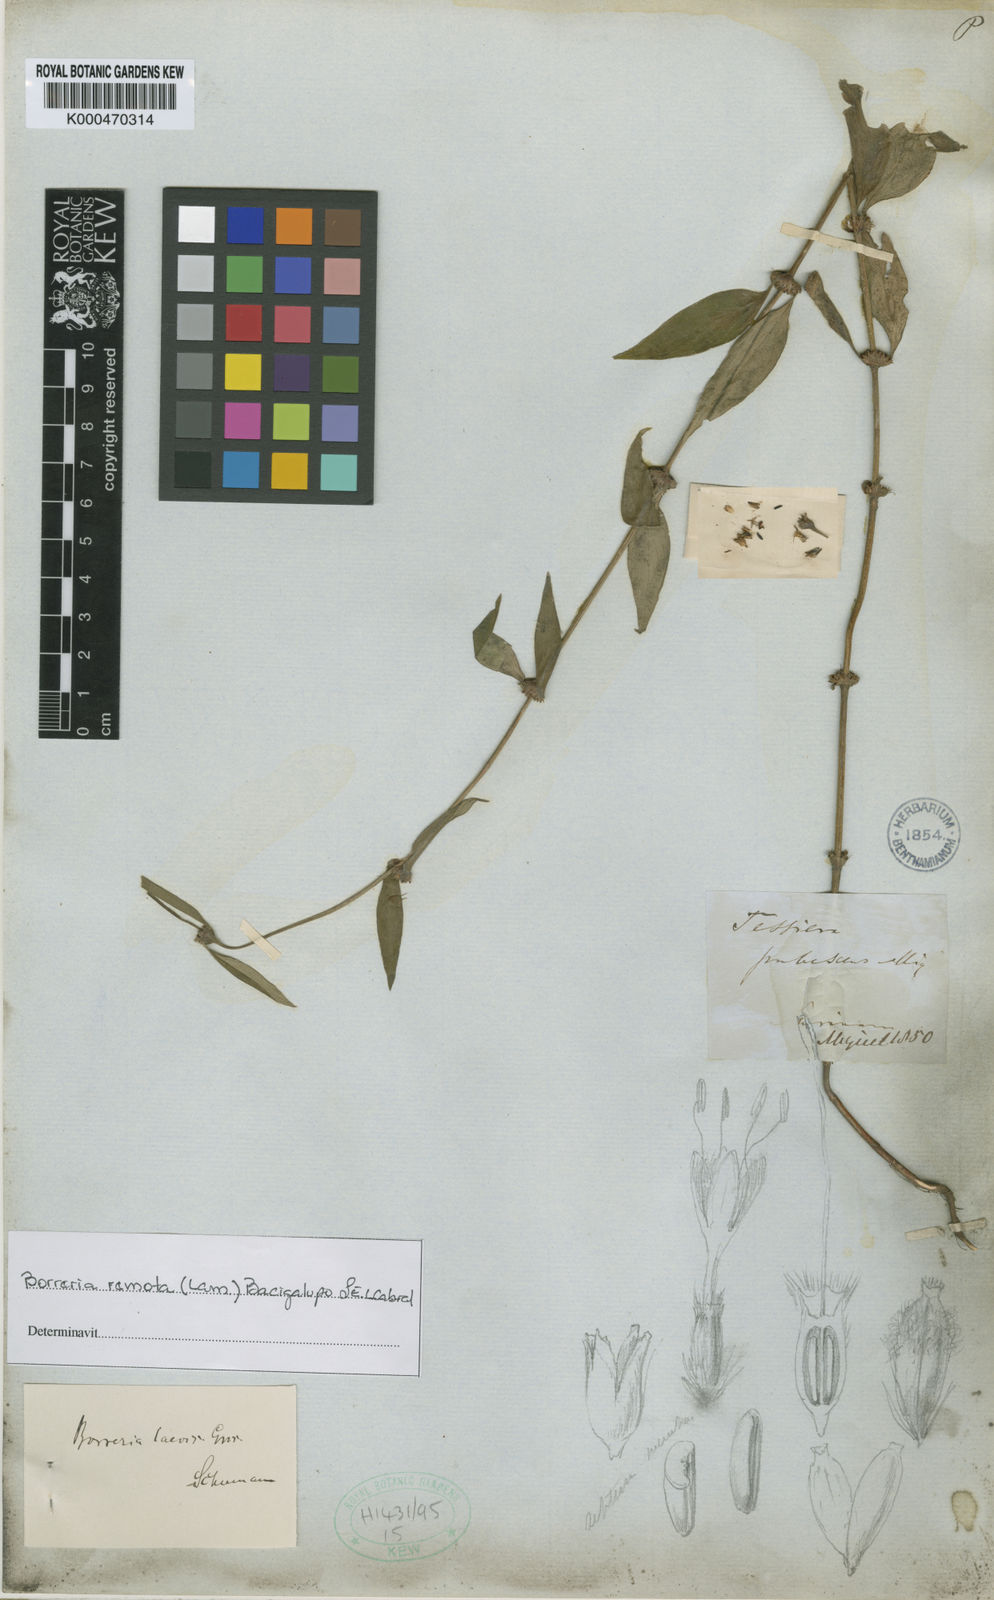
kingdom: Plantae
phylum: Tracheophyta
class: Magnoliopsida
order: Gentianales
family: Rubiaceae
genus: Spermacoce
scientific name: Spermacoce remota
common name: Woodland false buttonweed
